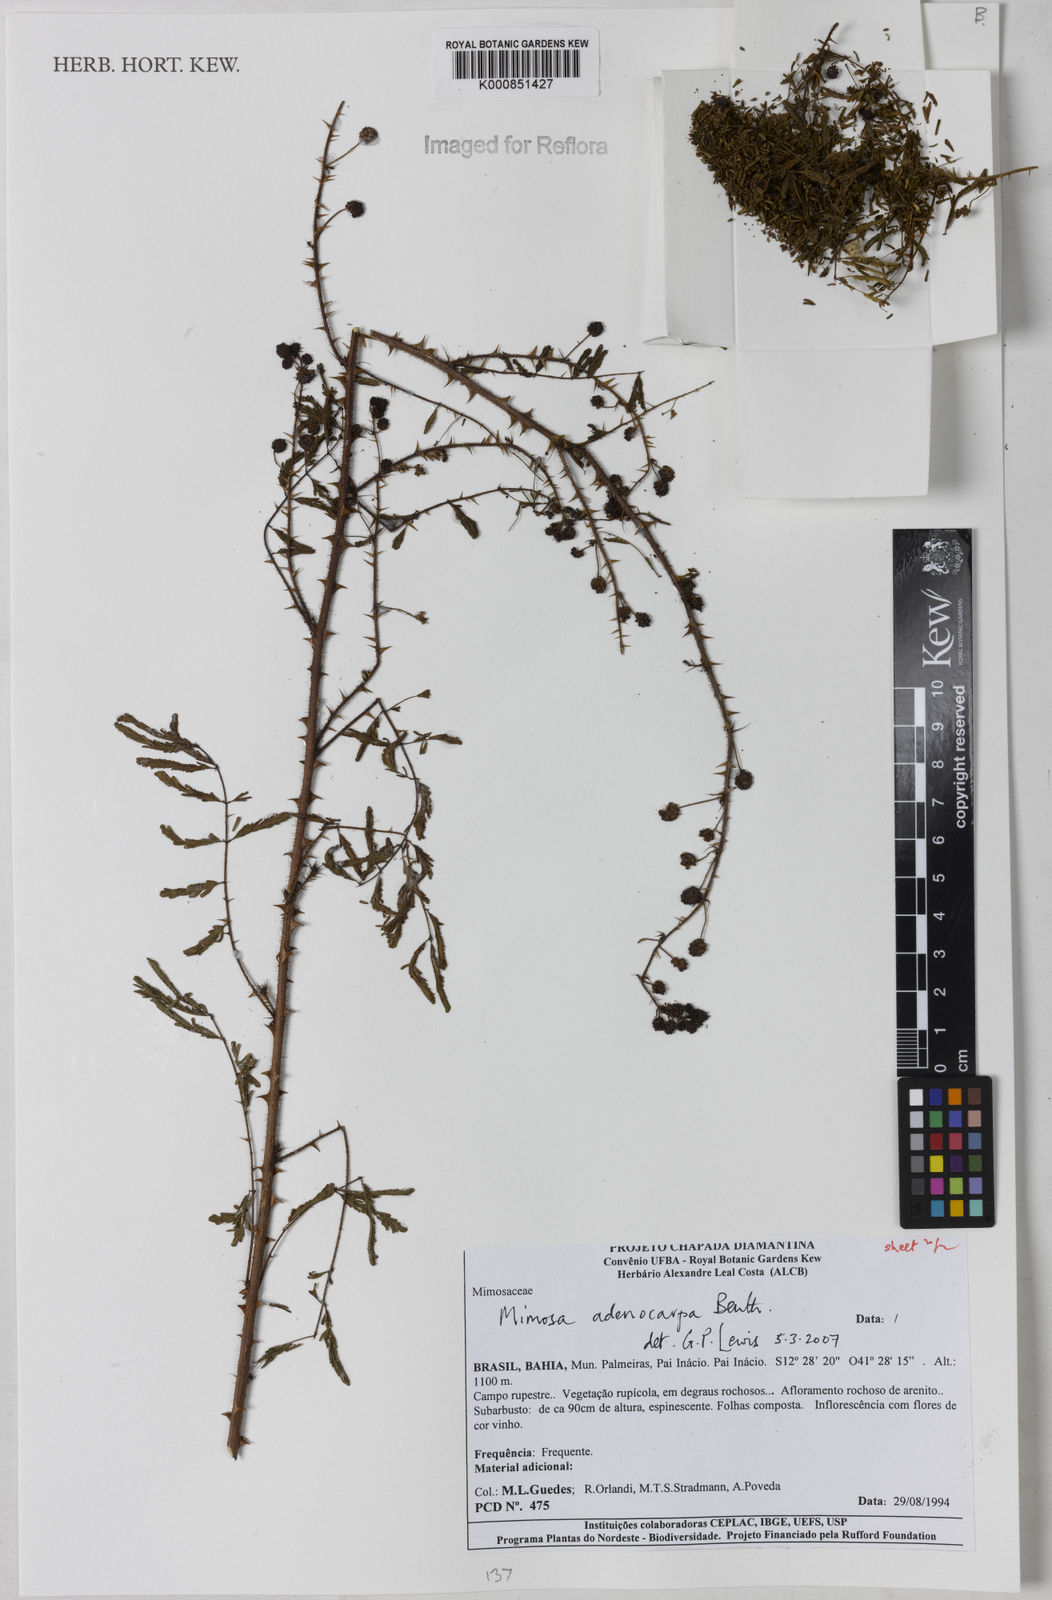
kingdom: Plantae
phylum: Tracheophyta
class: Magnoliopsida
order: Fabales
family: Fabaceae
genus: Mimosa
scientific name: Mimosa adenocarpa
